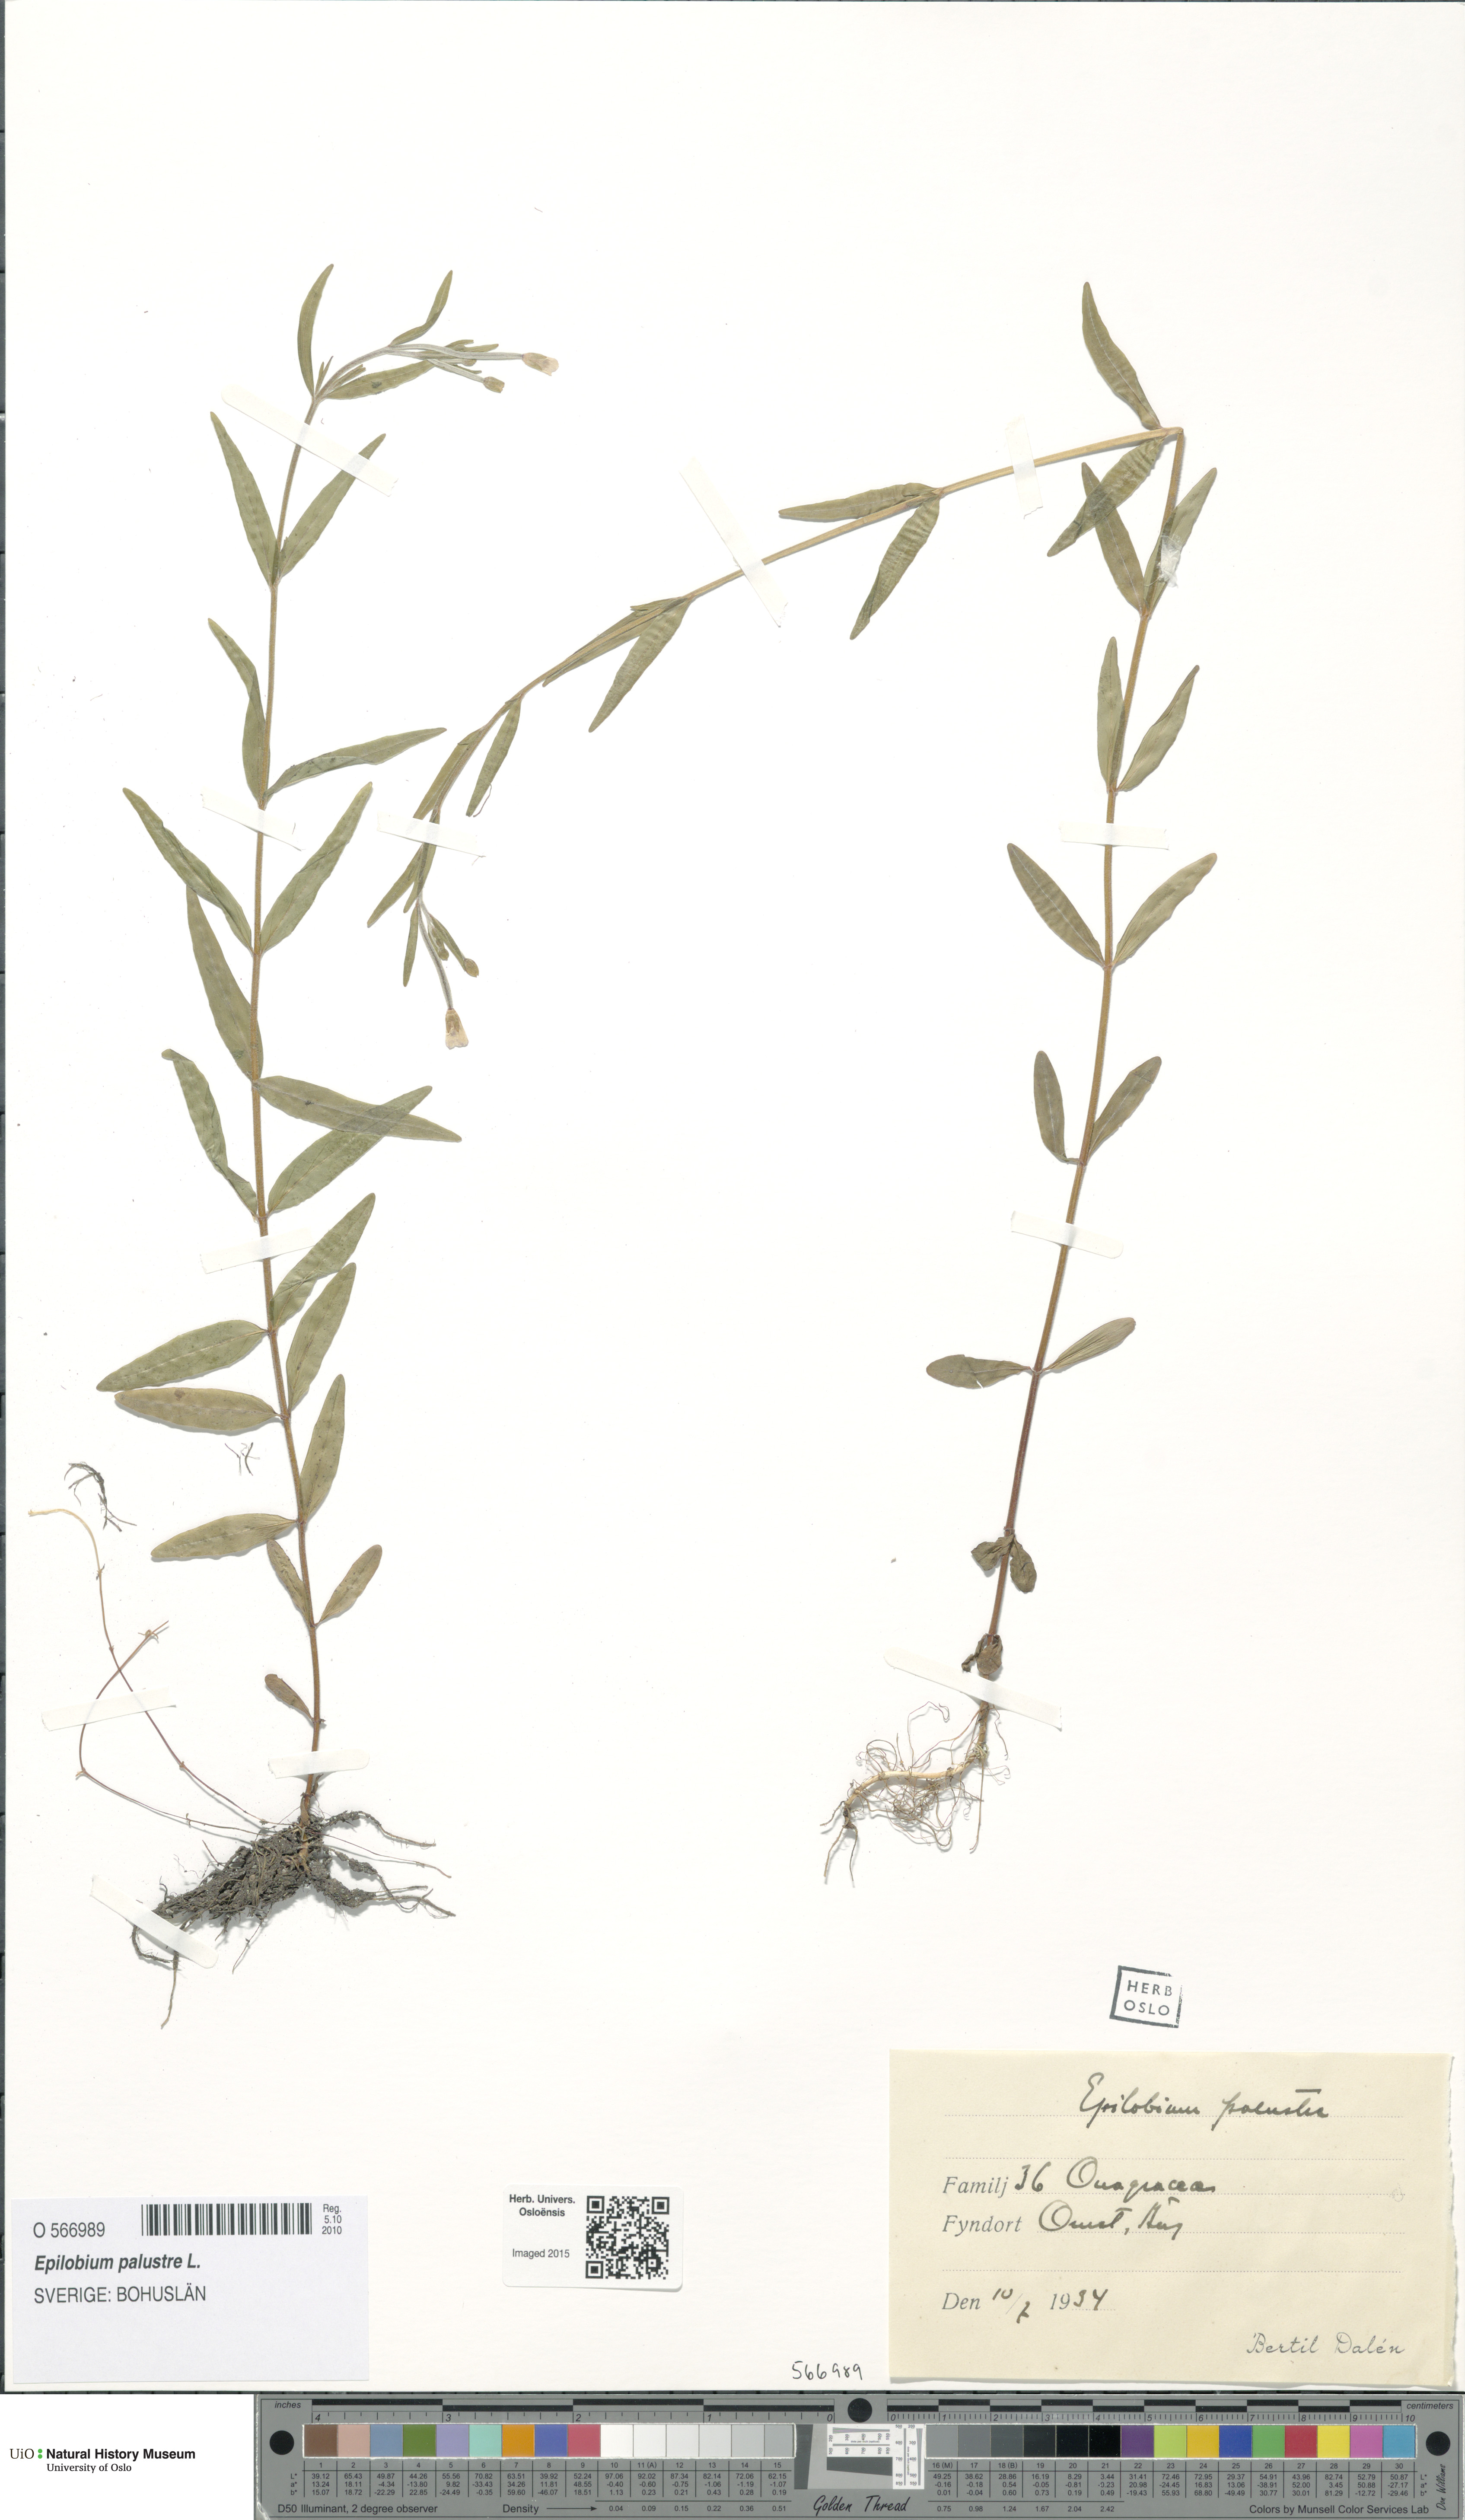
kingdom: Plantae
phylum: Tracheophyta
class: Magnoliopsida
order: Myrtales
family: Onagraceae
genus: Epilobium
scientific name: Epilobium palustre
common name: Marsh willowherb
